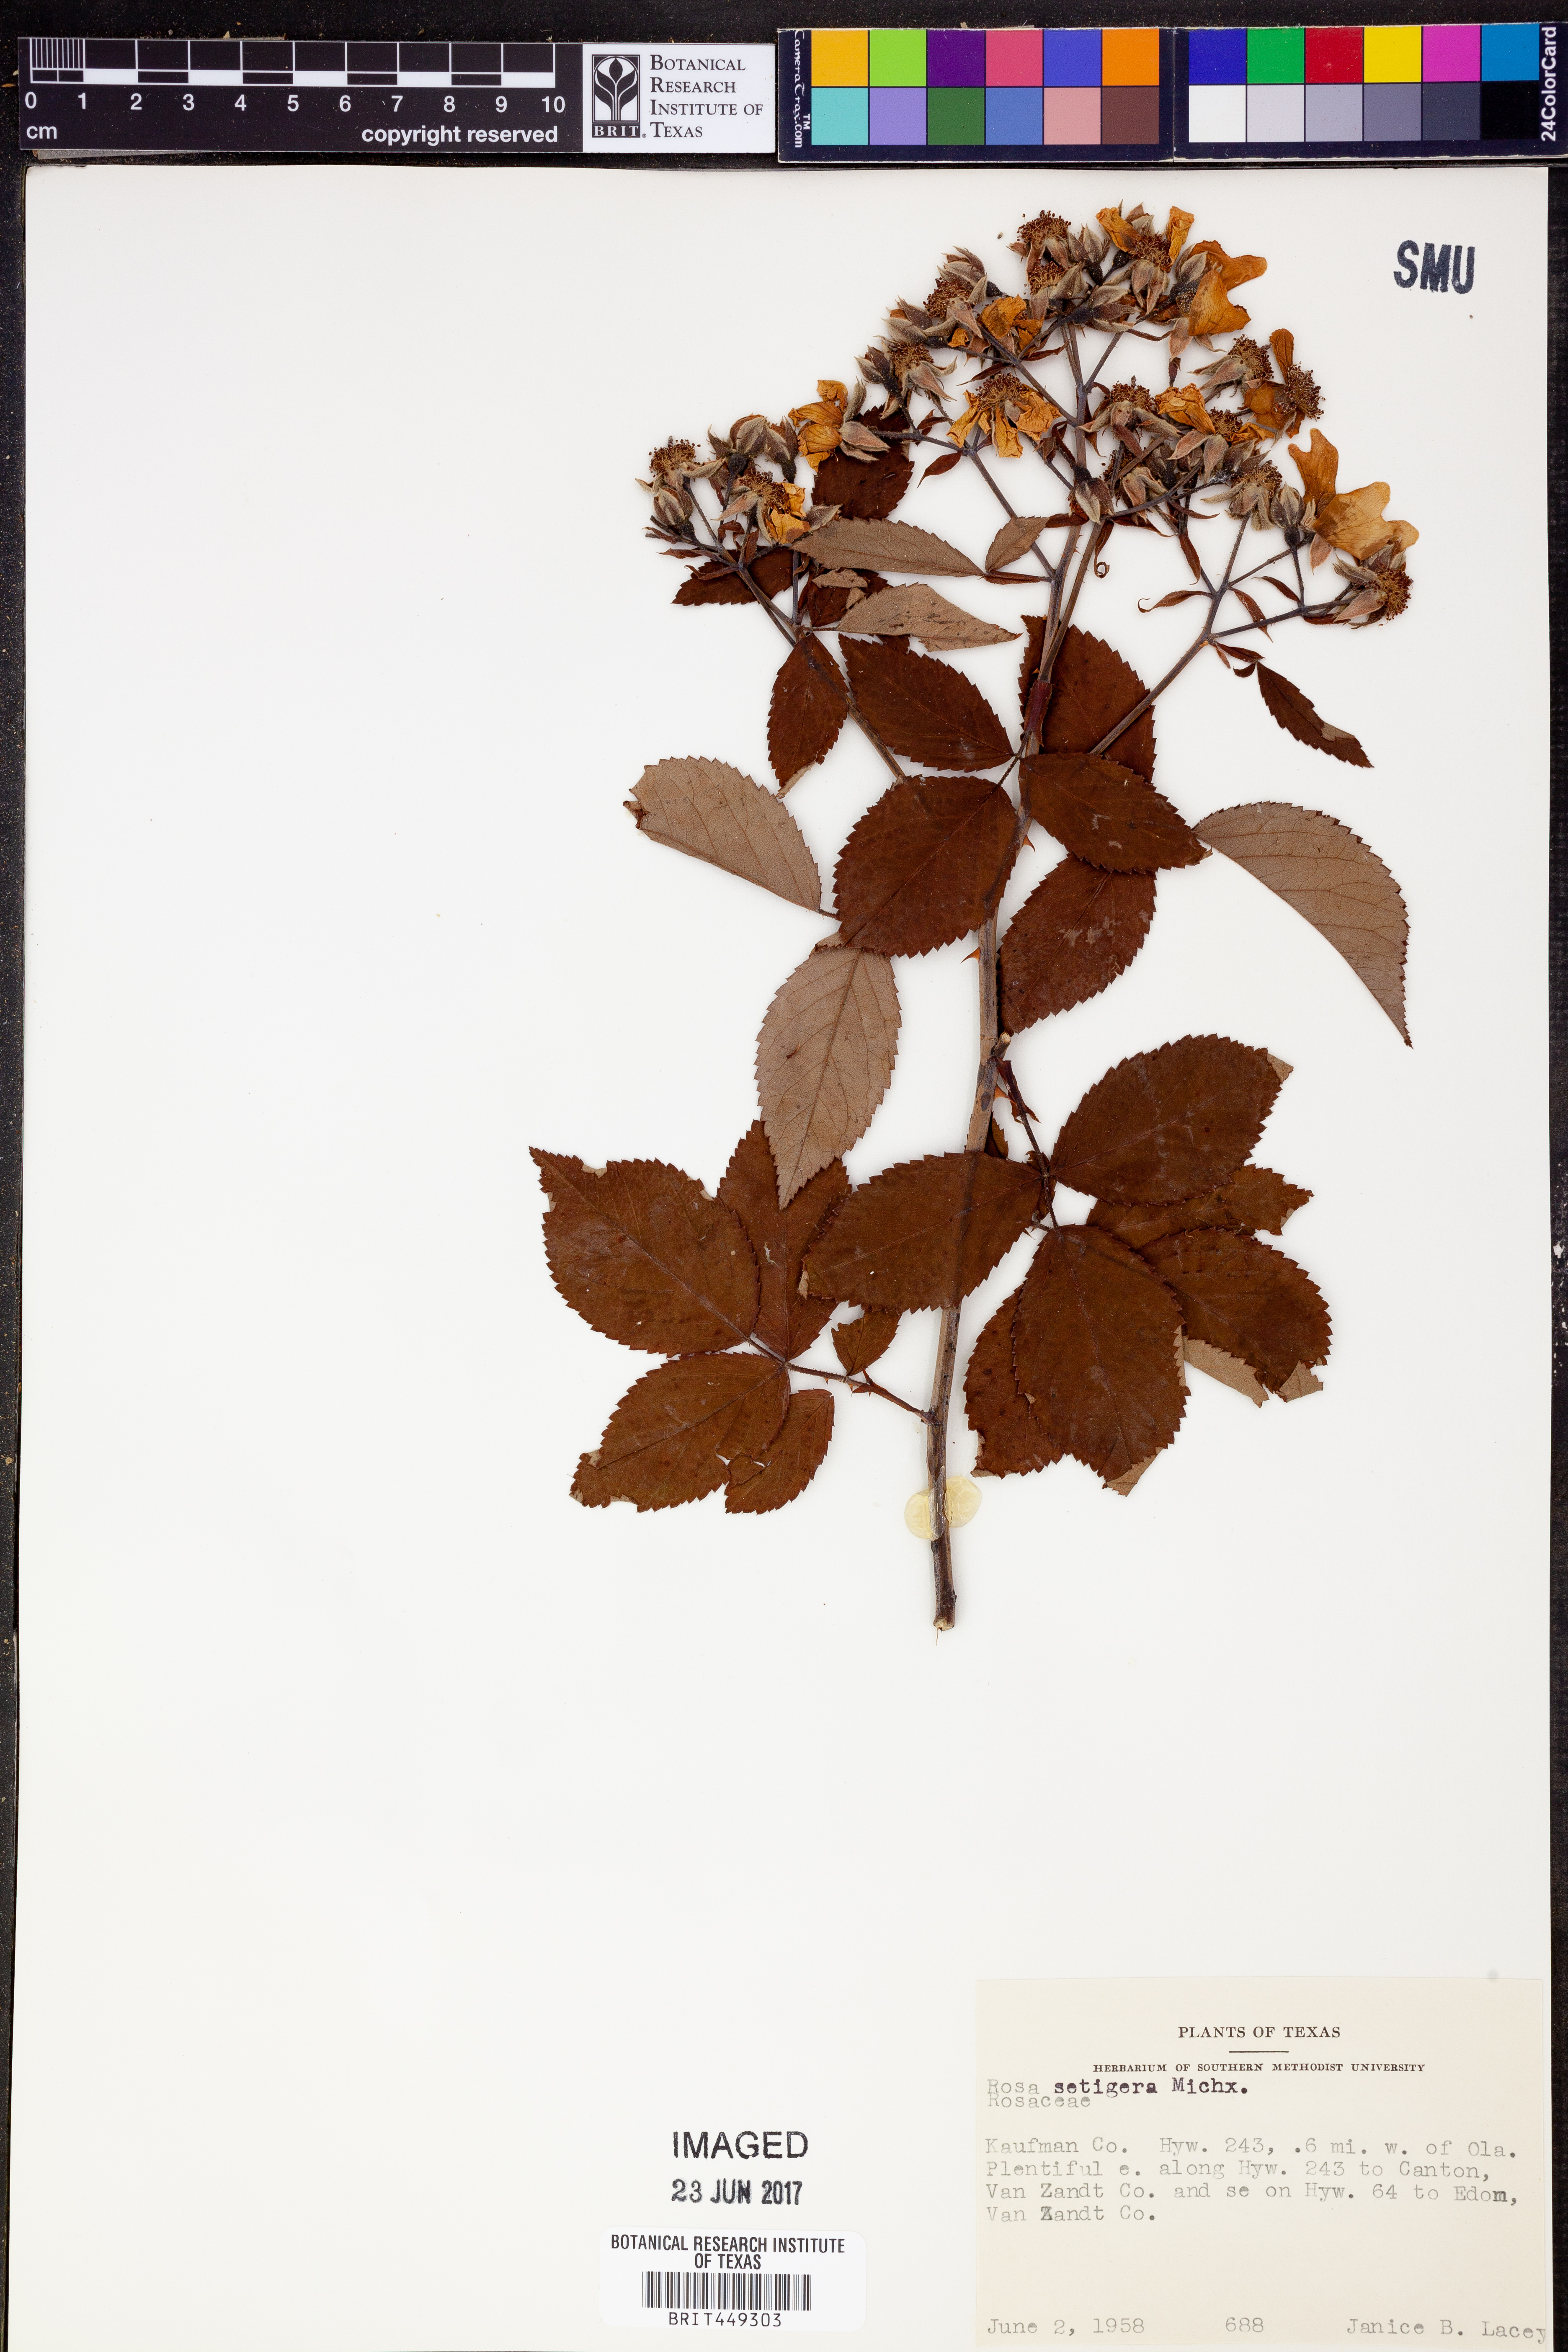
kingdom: Plantae
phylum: Tracheophyta
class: Magnoliopsida
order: Rosales
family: Rosaceae
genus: Rosa
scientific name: Rosa setigera
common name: Prairie rose
